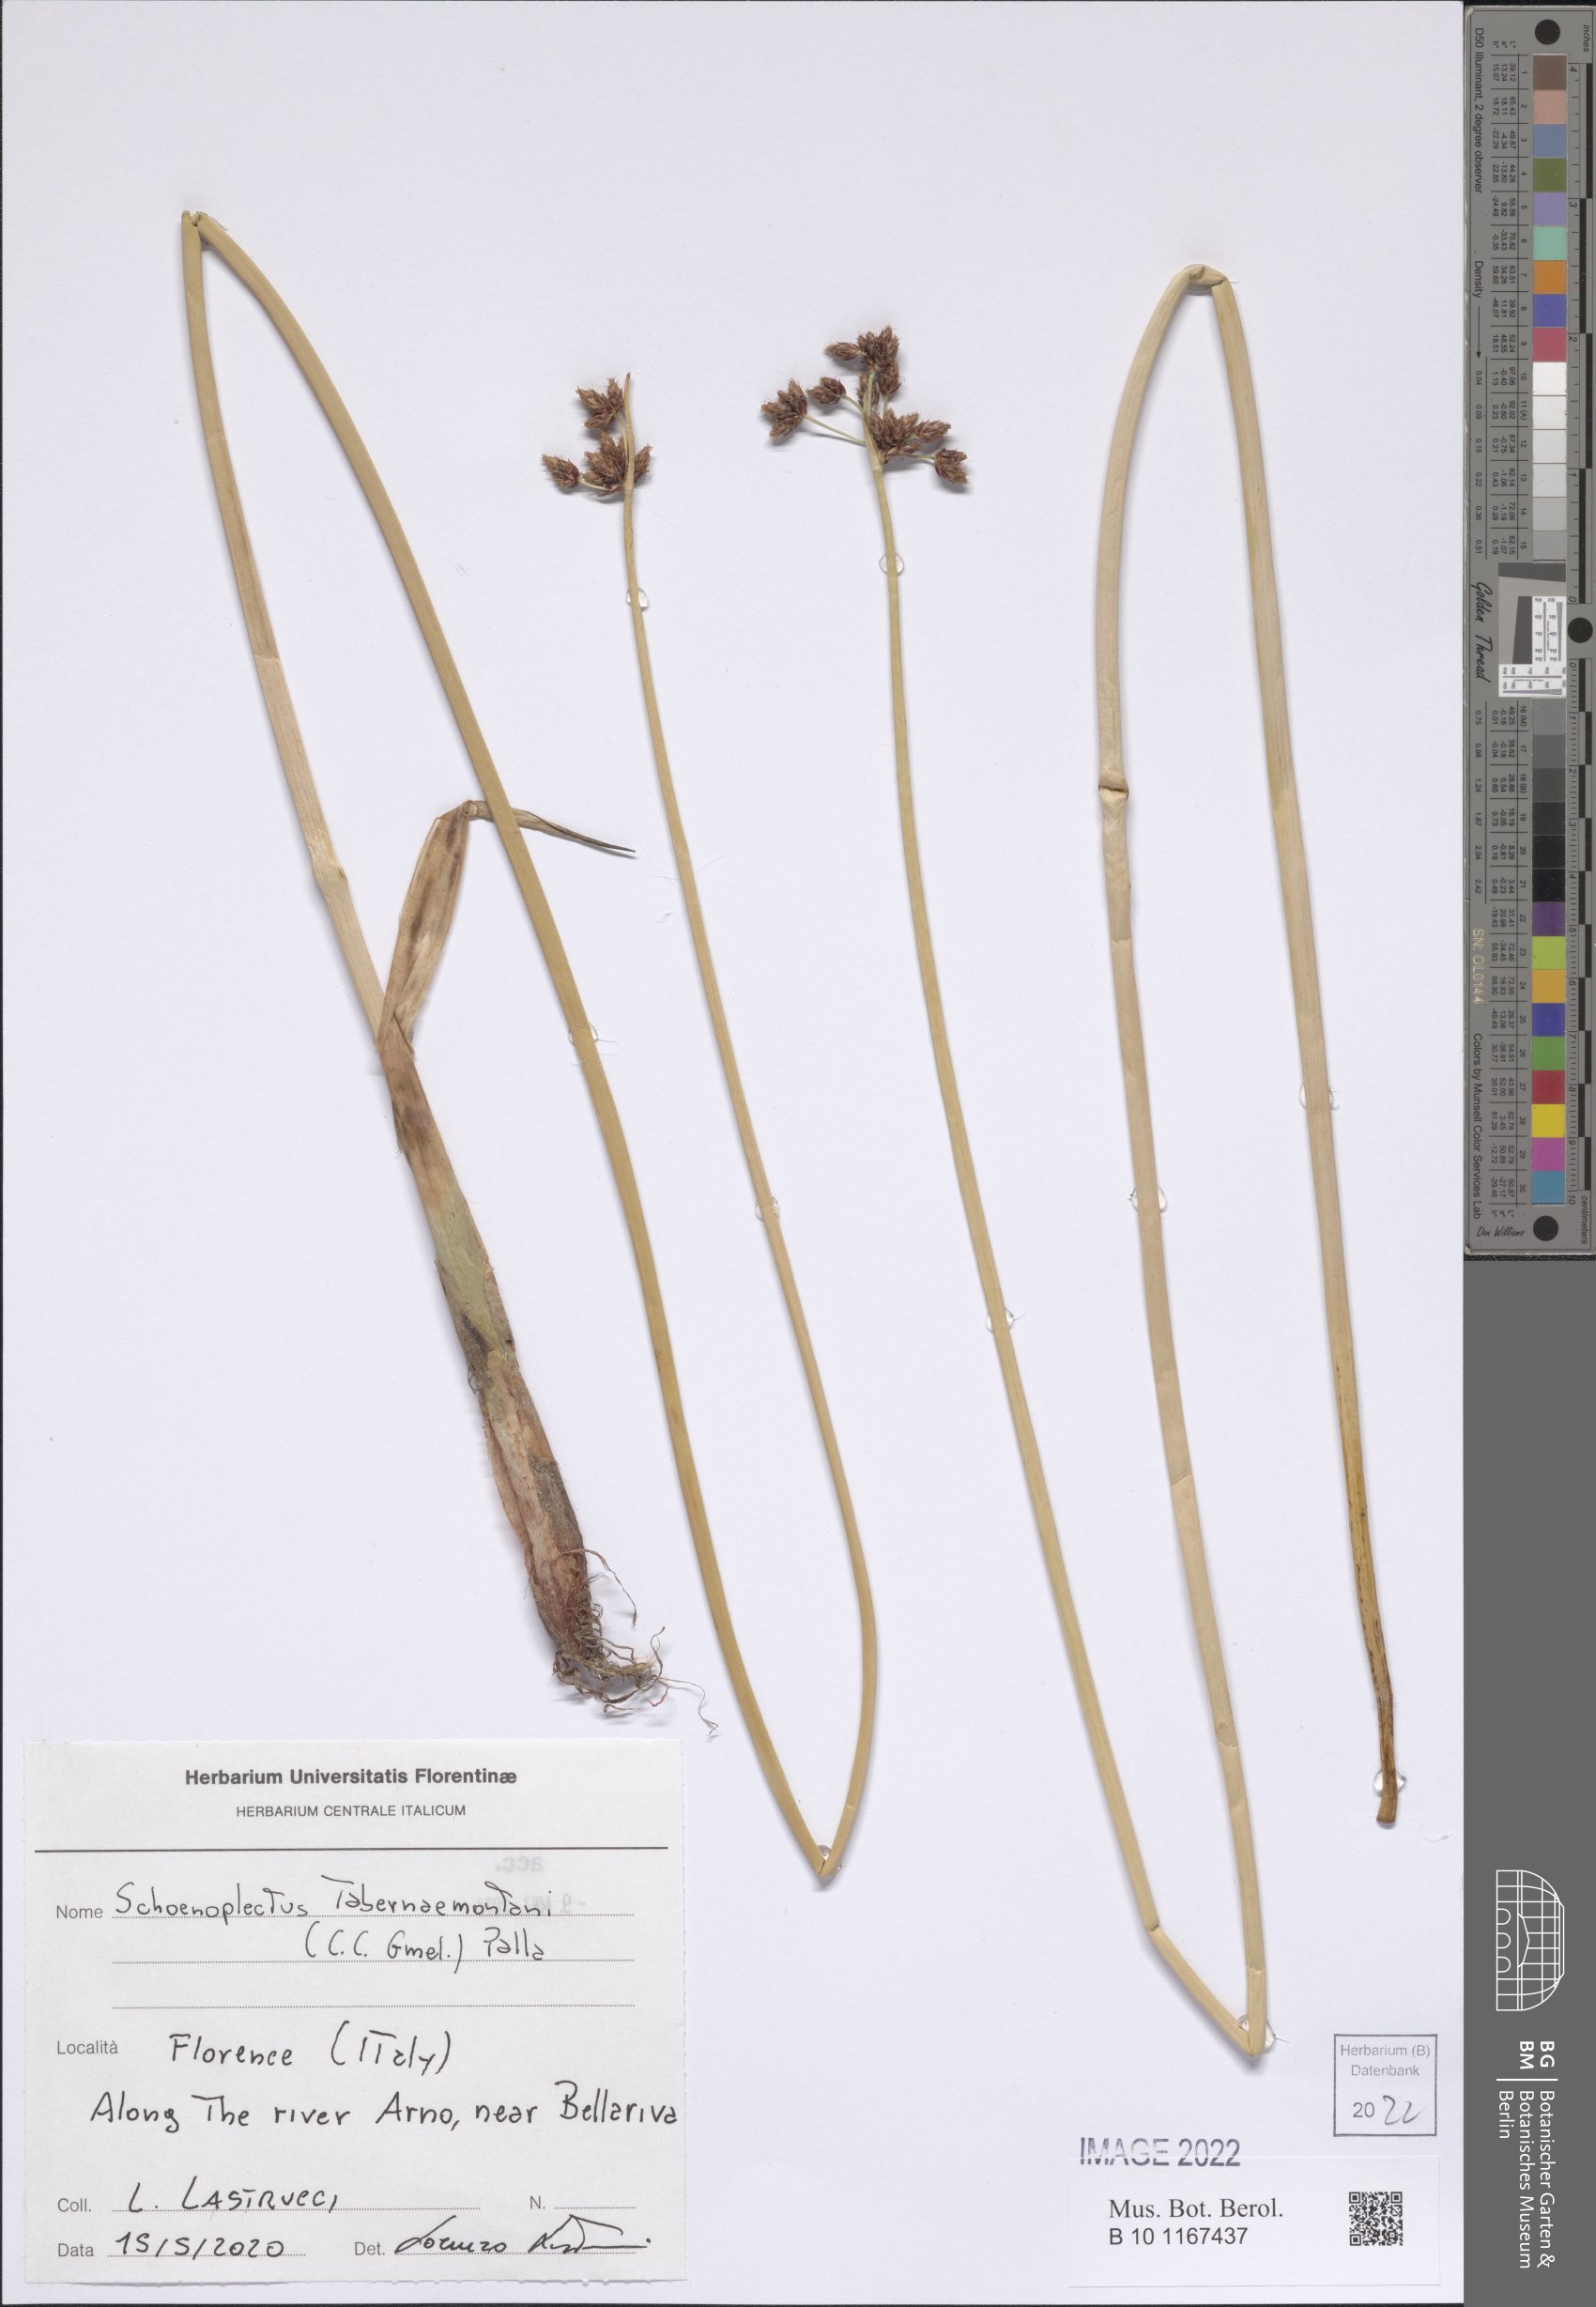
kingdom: Plantae
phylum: Tracheophyta
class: Liliopsida
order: Poales
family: Cyperaceae
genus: Schoenoplectus
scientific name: Schoenoplectus tabernaemontani
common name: Grey club-rush
